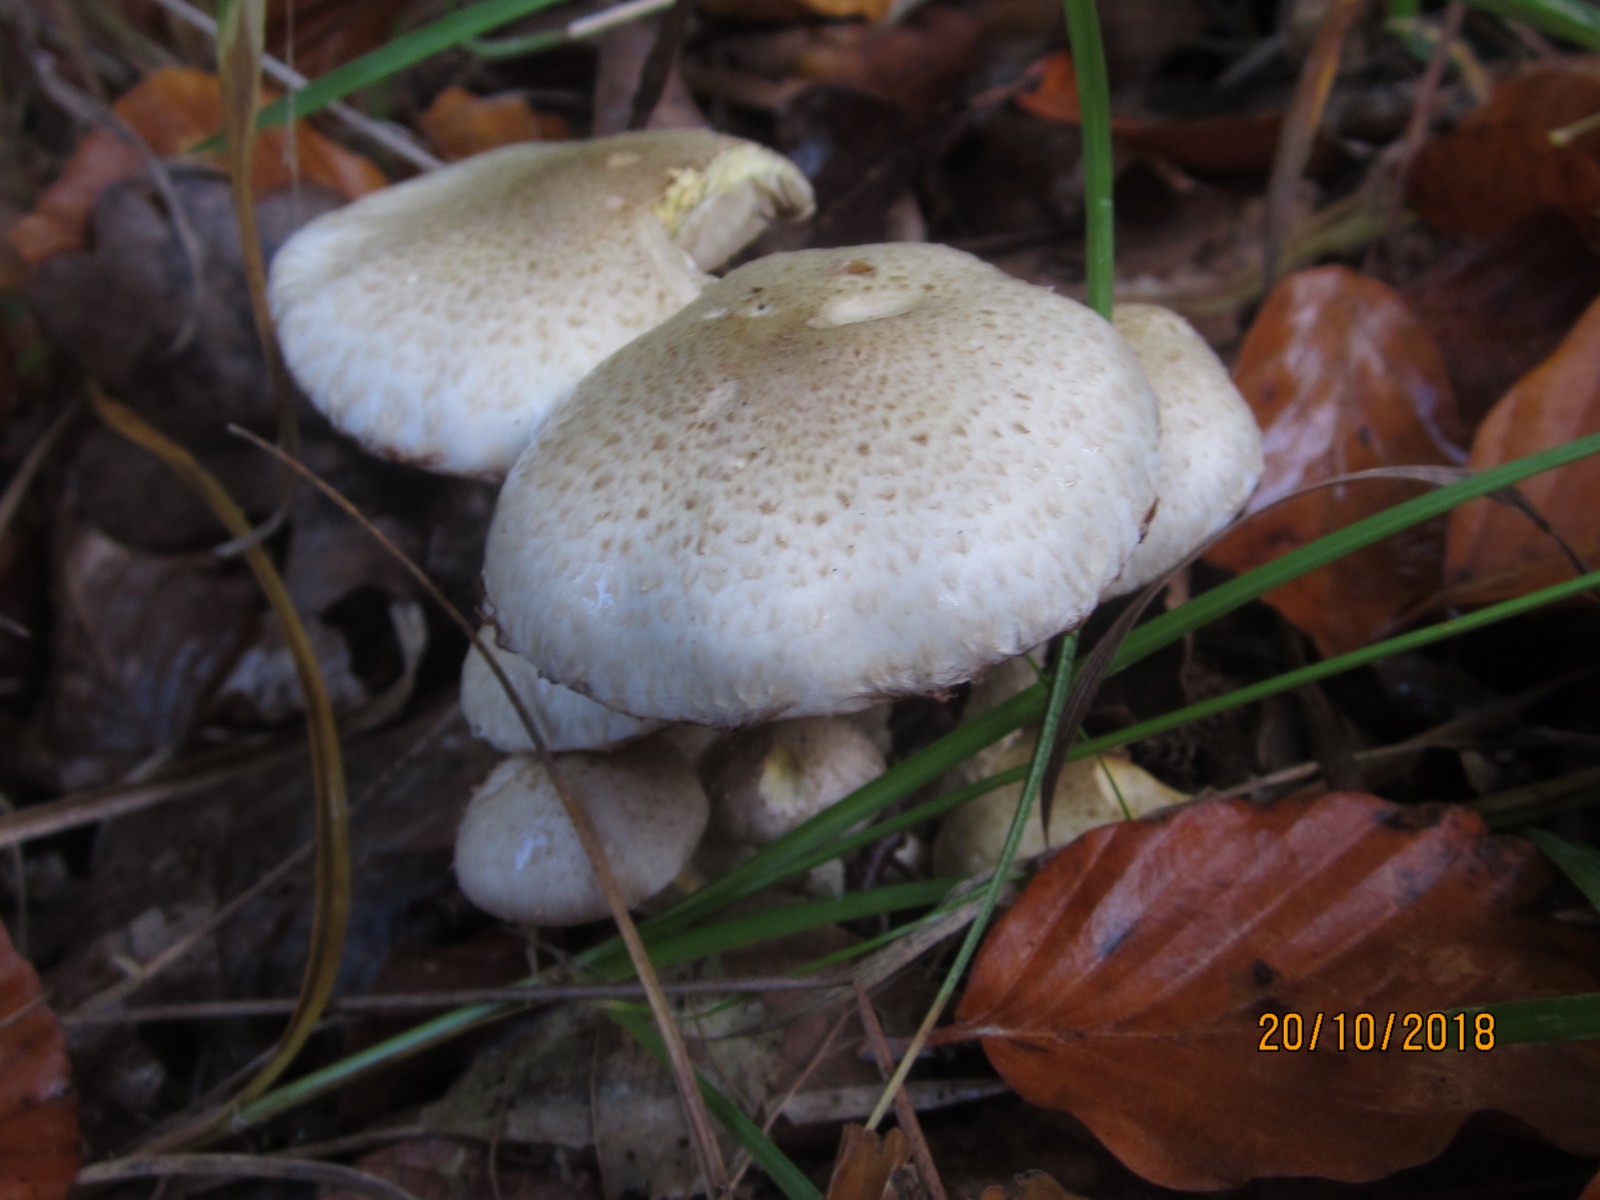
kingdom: Fungi
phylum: Basidiomycota
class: Agaricomycetes
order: Agaricales
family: Strophariaceae
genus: Pholiota
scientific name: Pholiota gummosa
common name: grøngul skælhat
